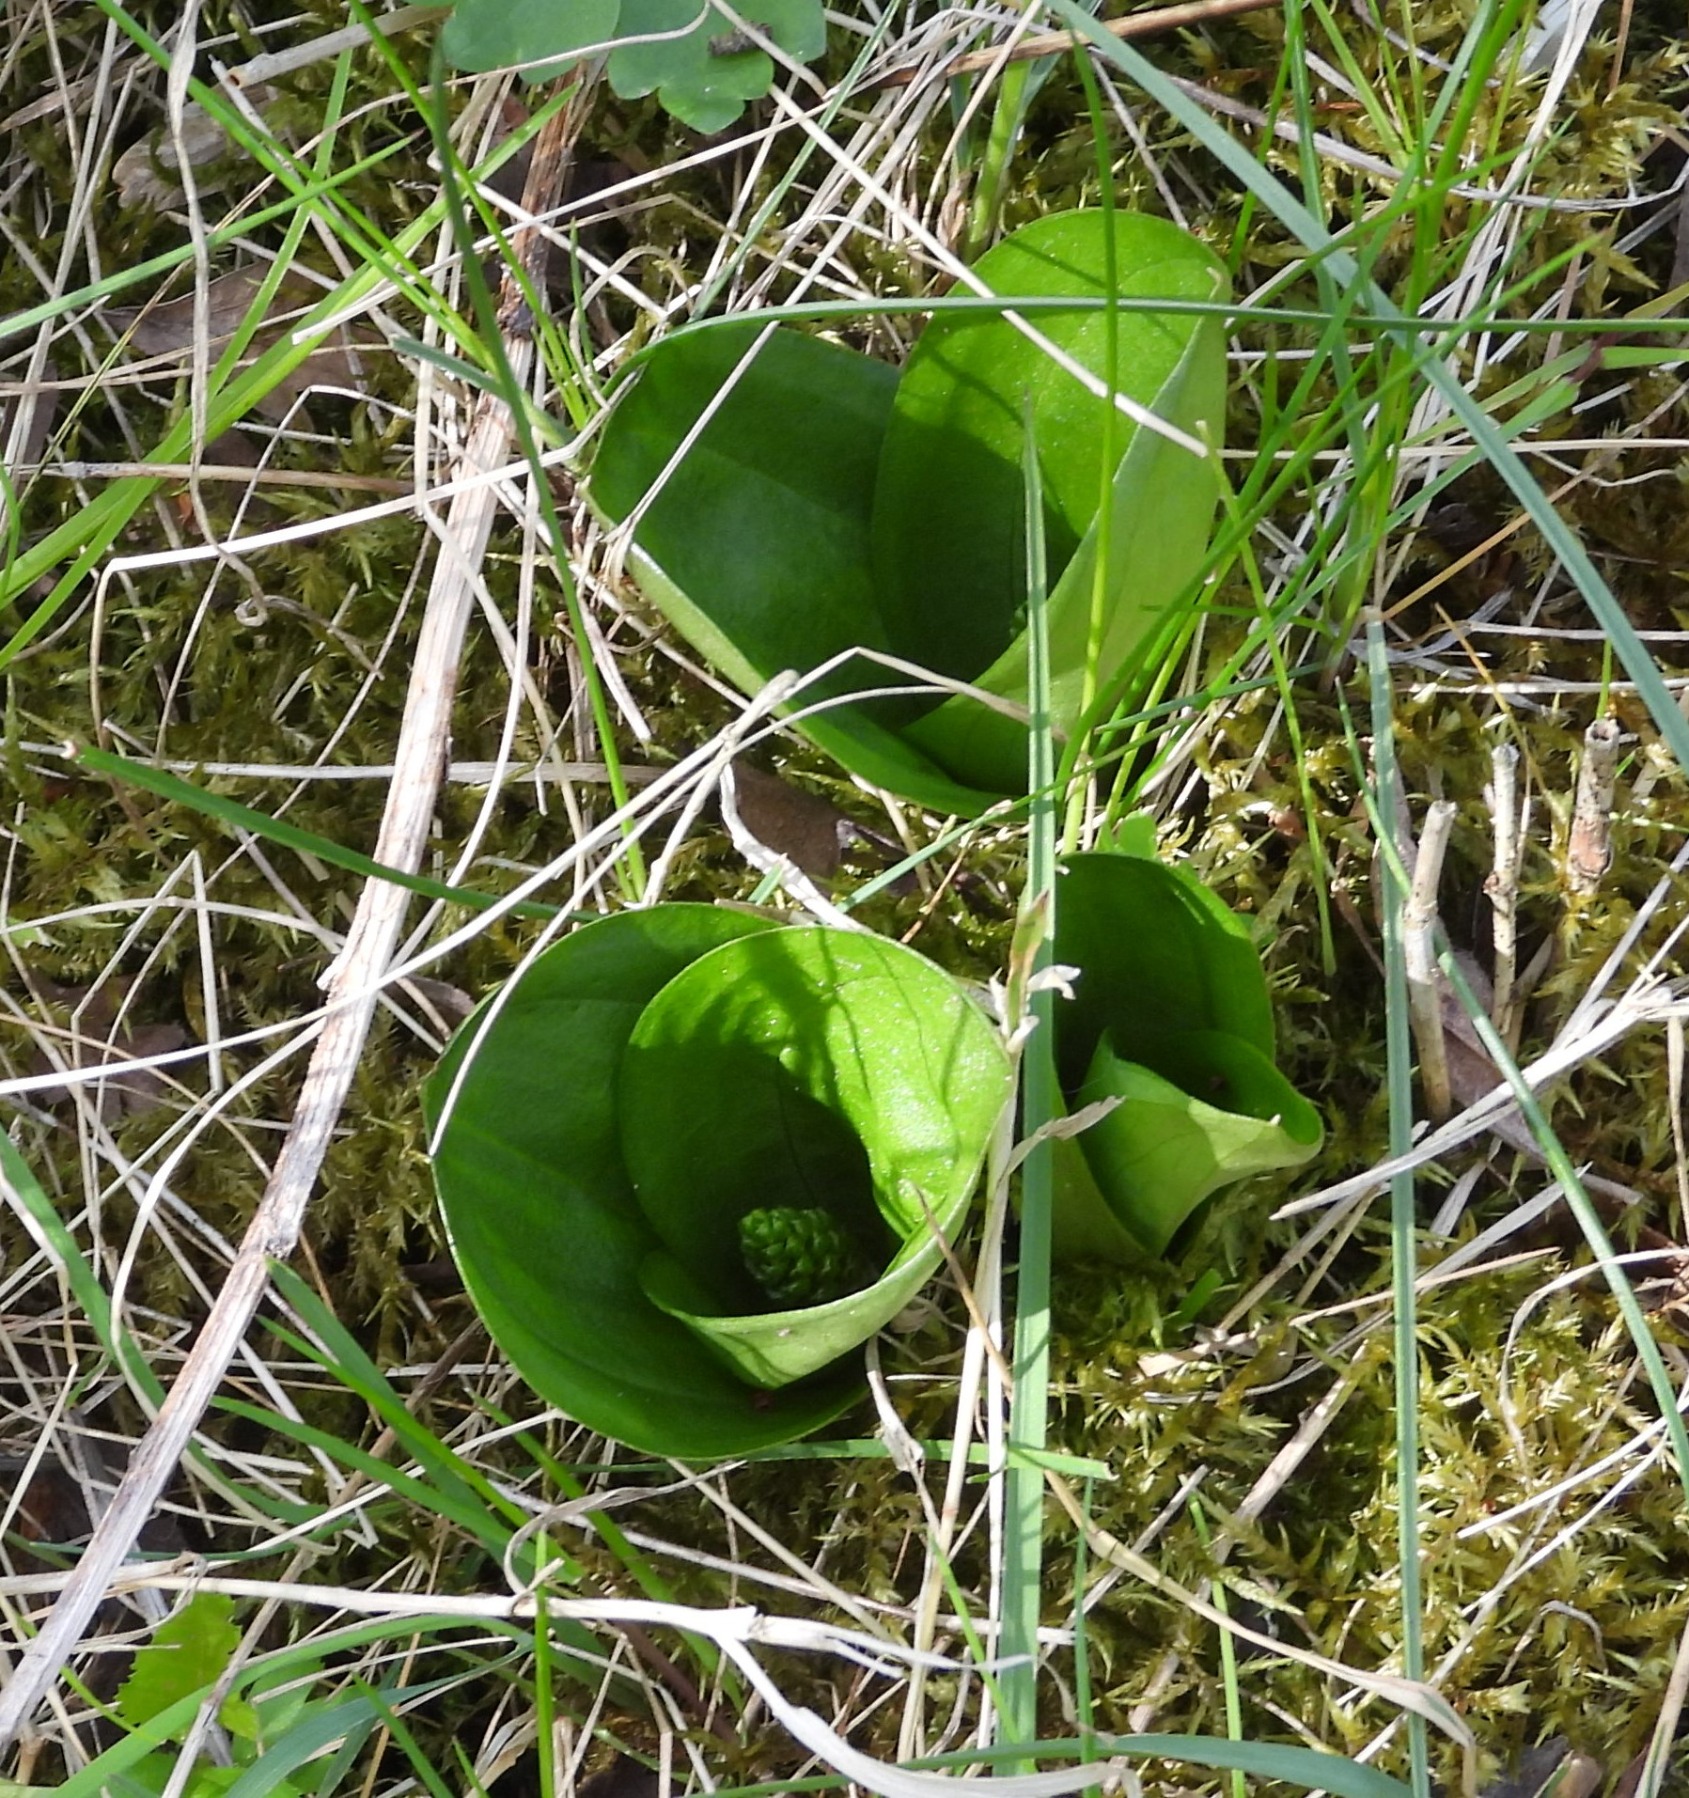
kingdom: Plantae
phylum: Tracheophyta
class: Liliopsida
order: Asparagales
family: Orchidaceae
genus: Neottia
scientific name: Neottia ovata
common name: Ægbladet fliglæbe
